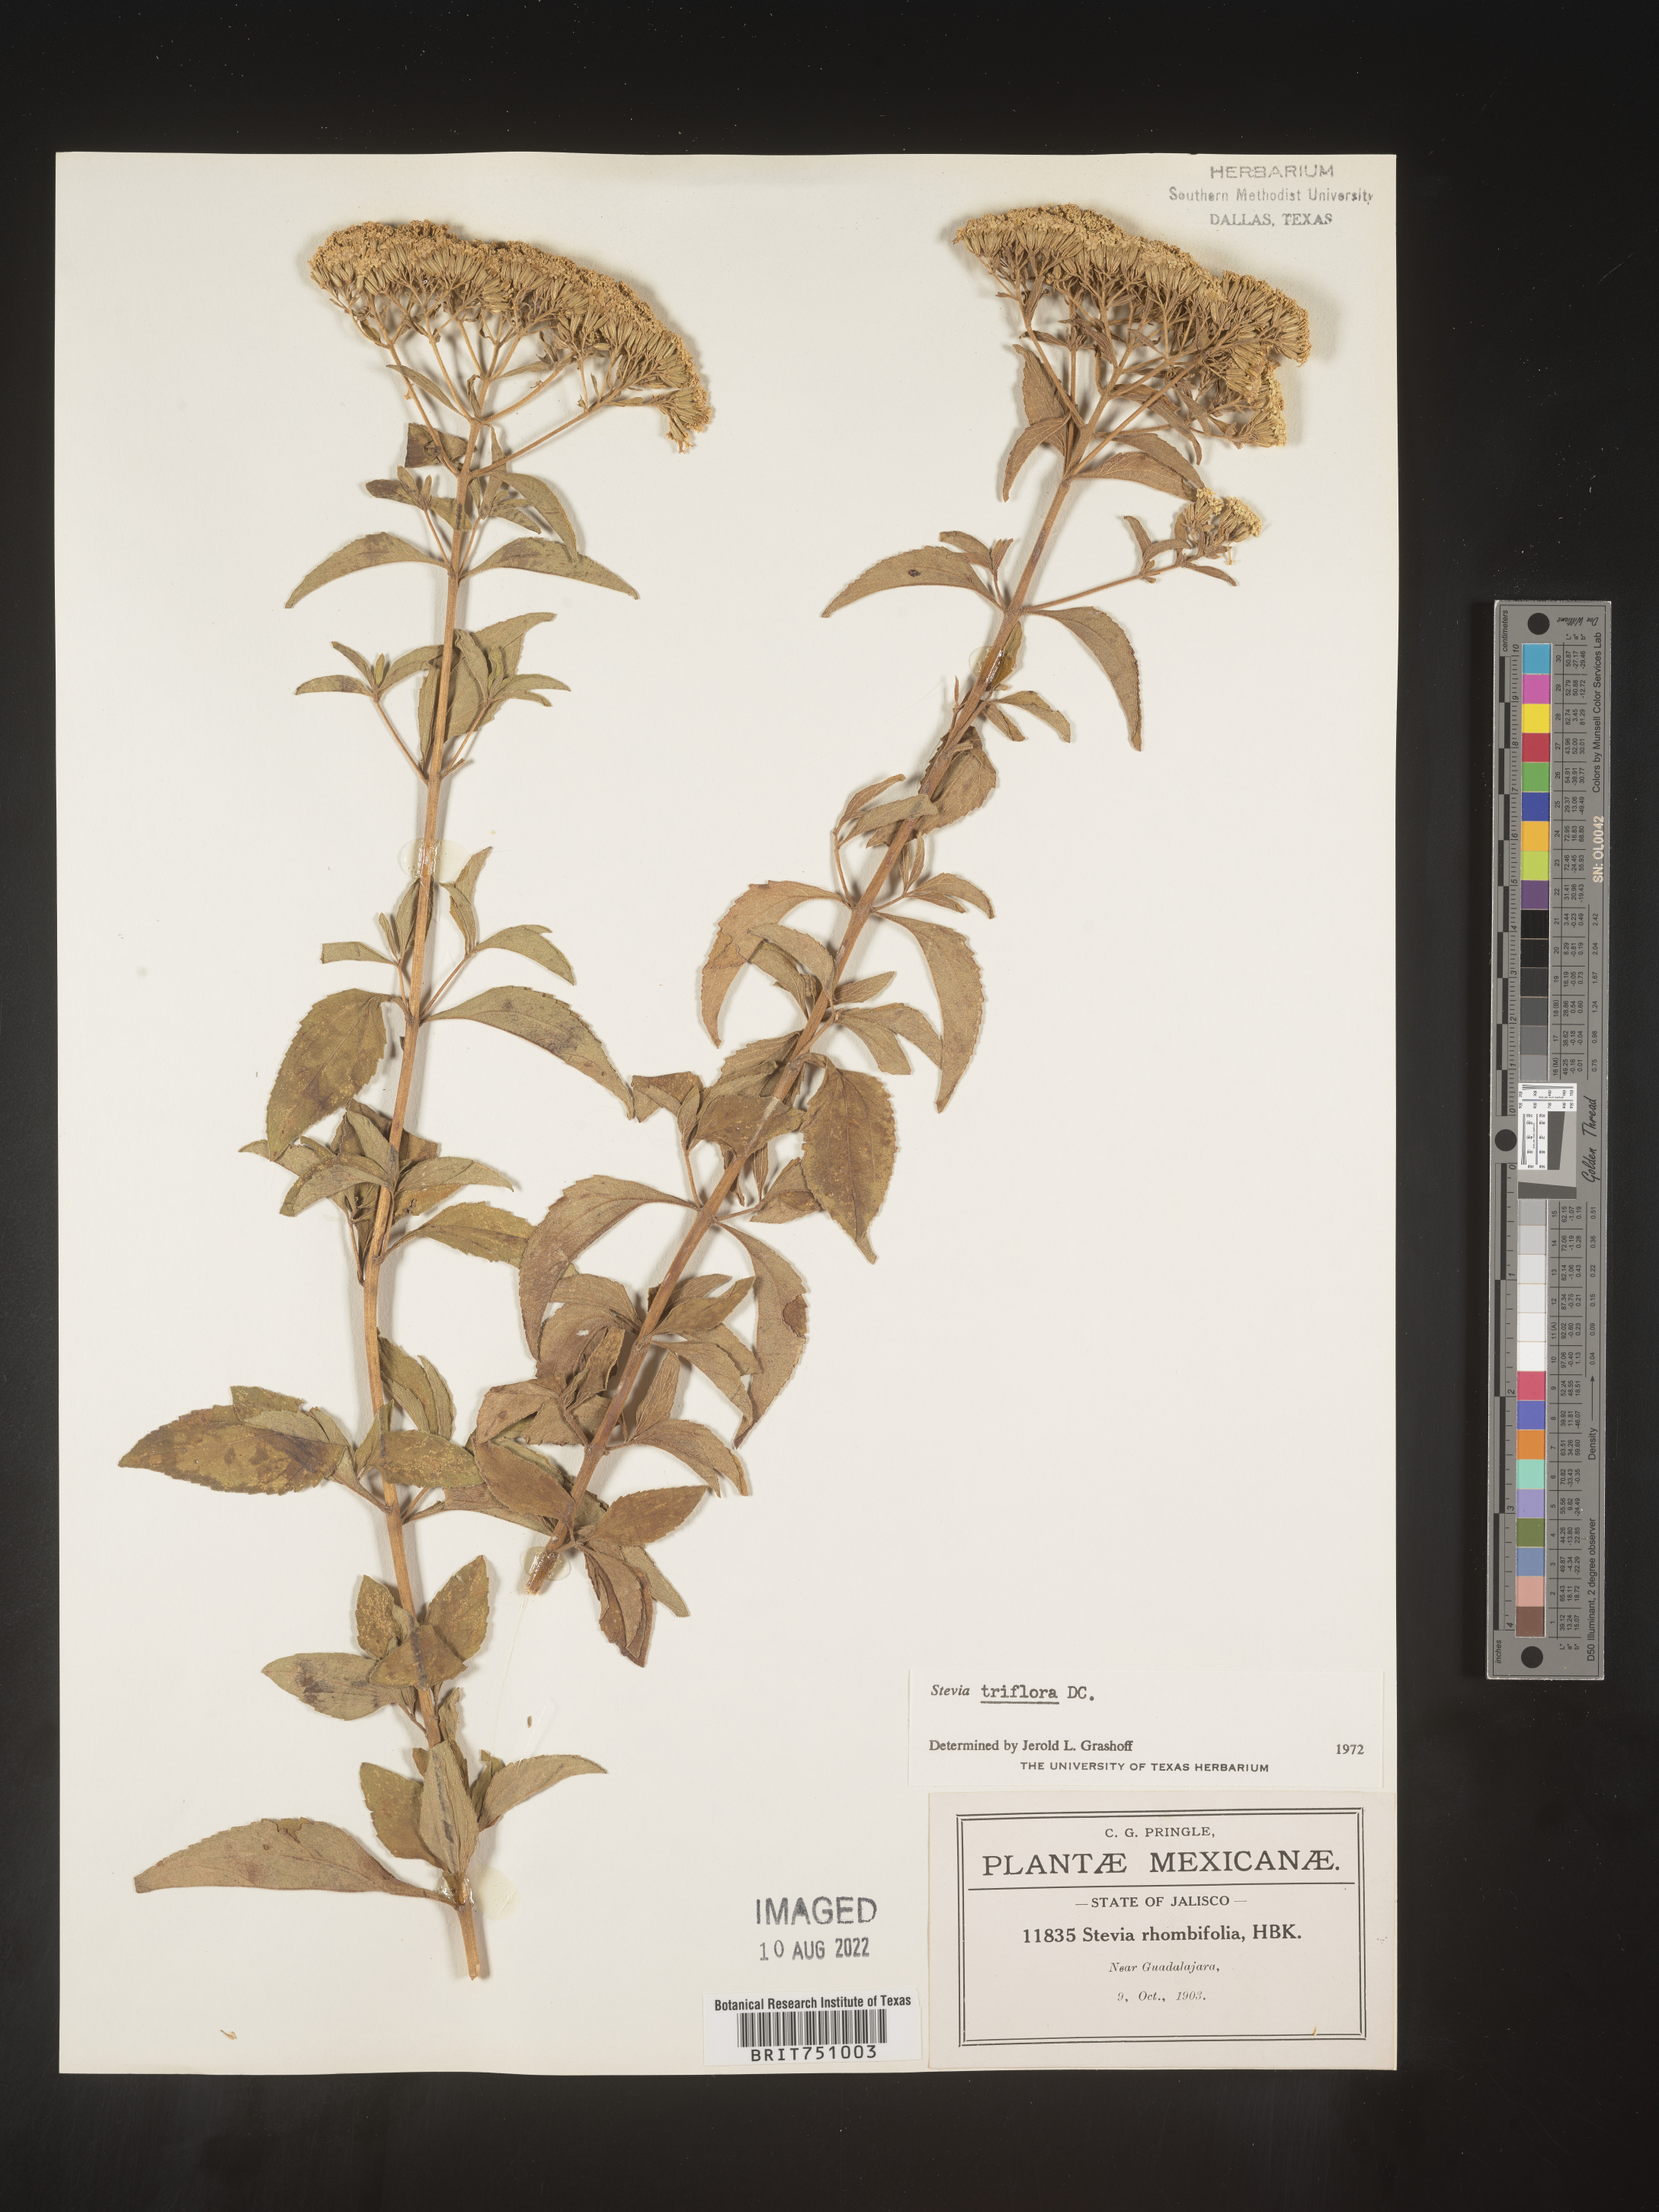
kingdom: Plantae
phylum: Tracheophyta
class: Magnoliopsida
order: Asterales
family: Asteraceae
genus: Stevia
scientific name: Stevia
